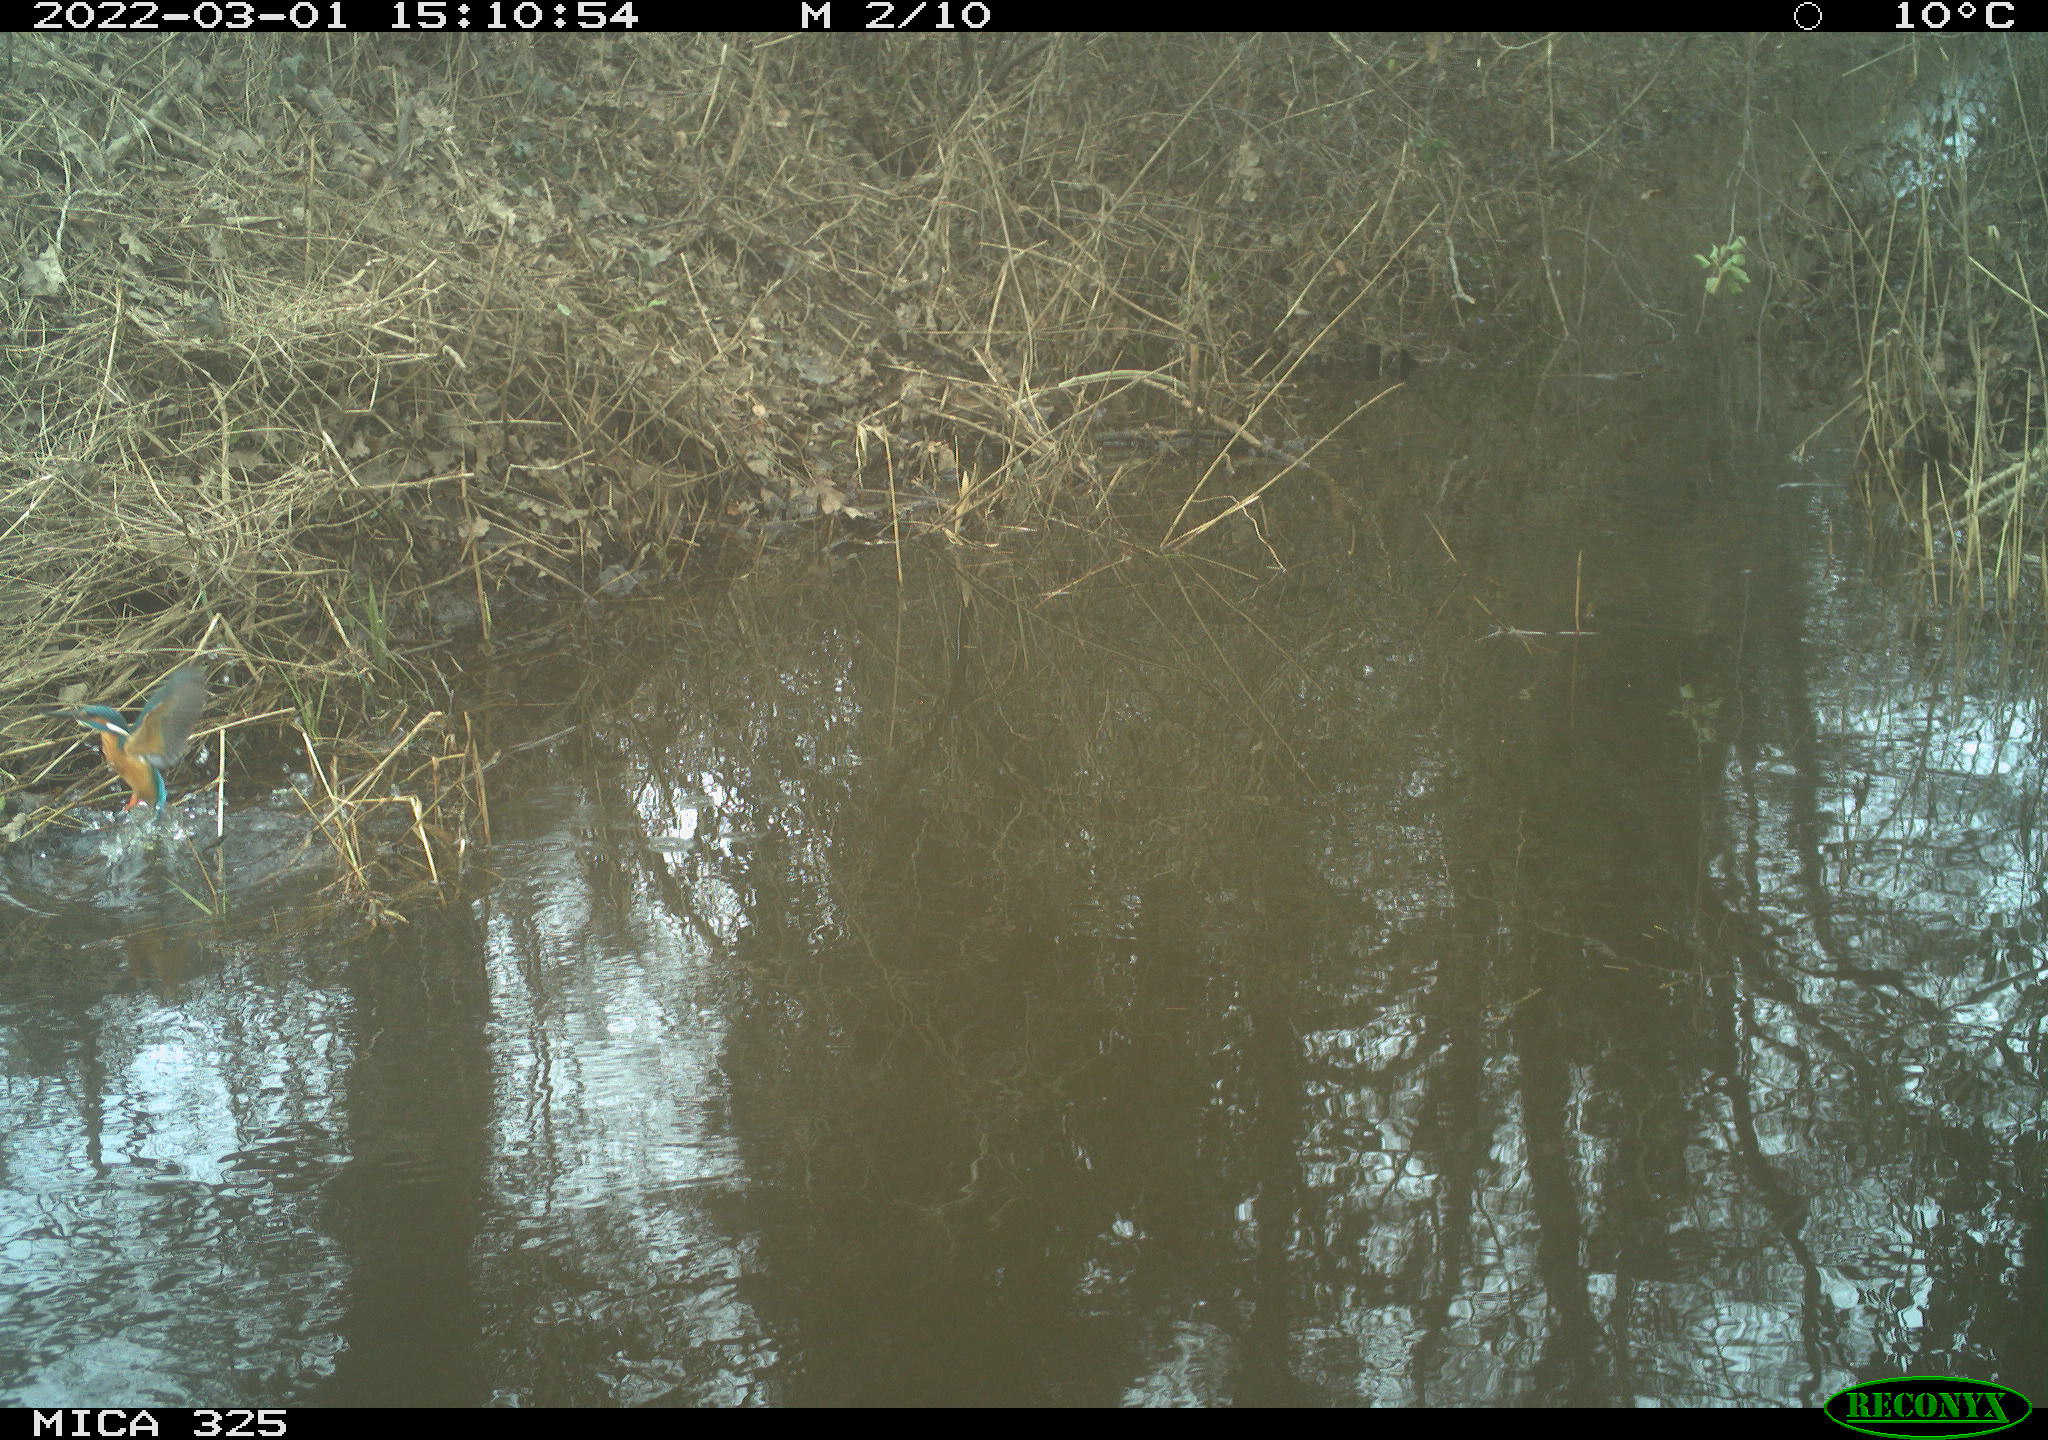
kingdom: Animalia
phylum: Chordata
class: Aves
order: Coraciiformes
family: Alcedinidae
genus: Alcedo
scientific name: Alcedo atthis
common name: Common kingfisher
